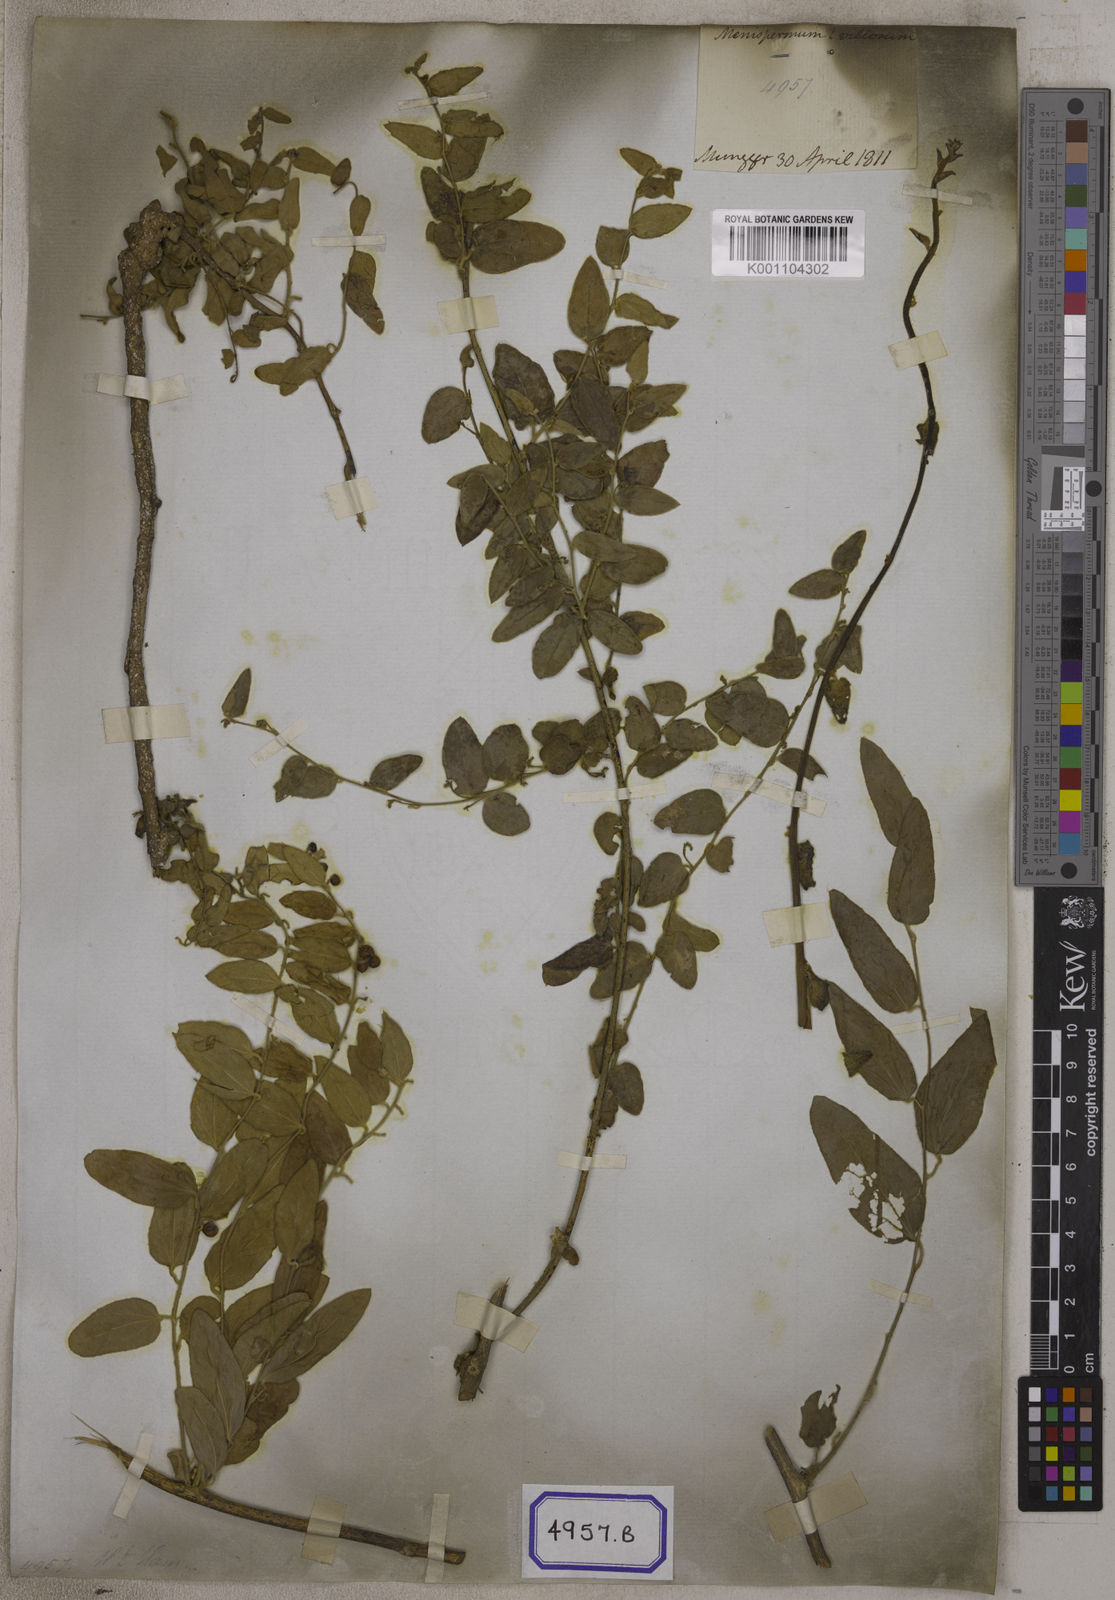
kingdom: Plantae
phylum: Tracheophyta
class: Magnoliopsida
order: Ranunculales
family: Menispermaceae
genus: Cocculus
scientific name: Cocculus hirsutus
